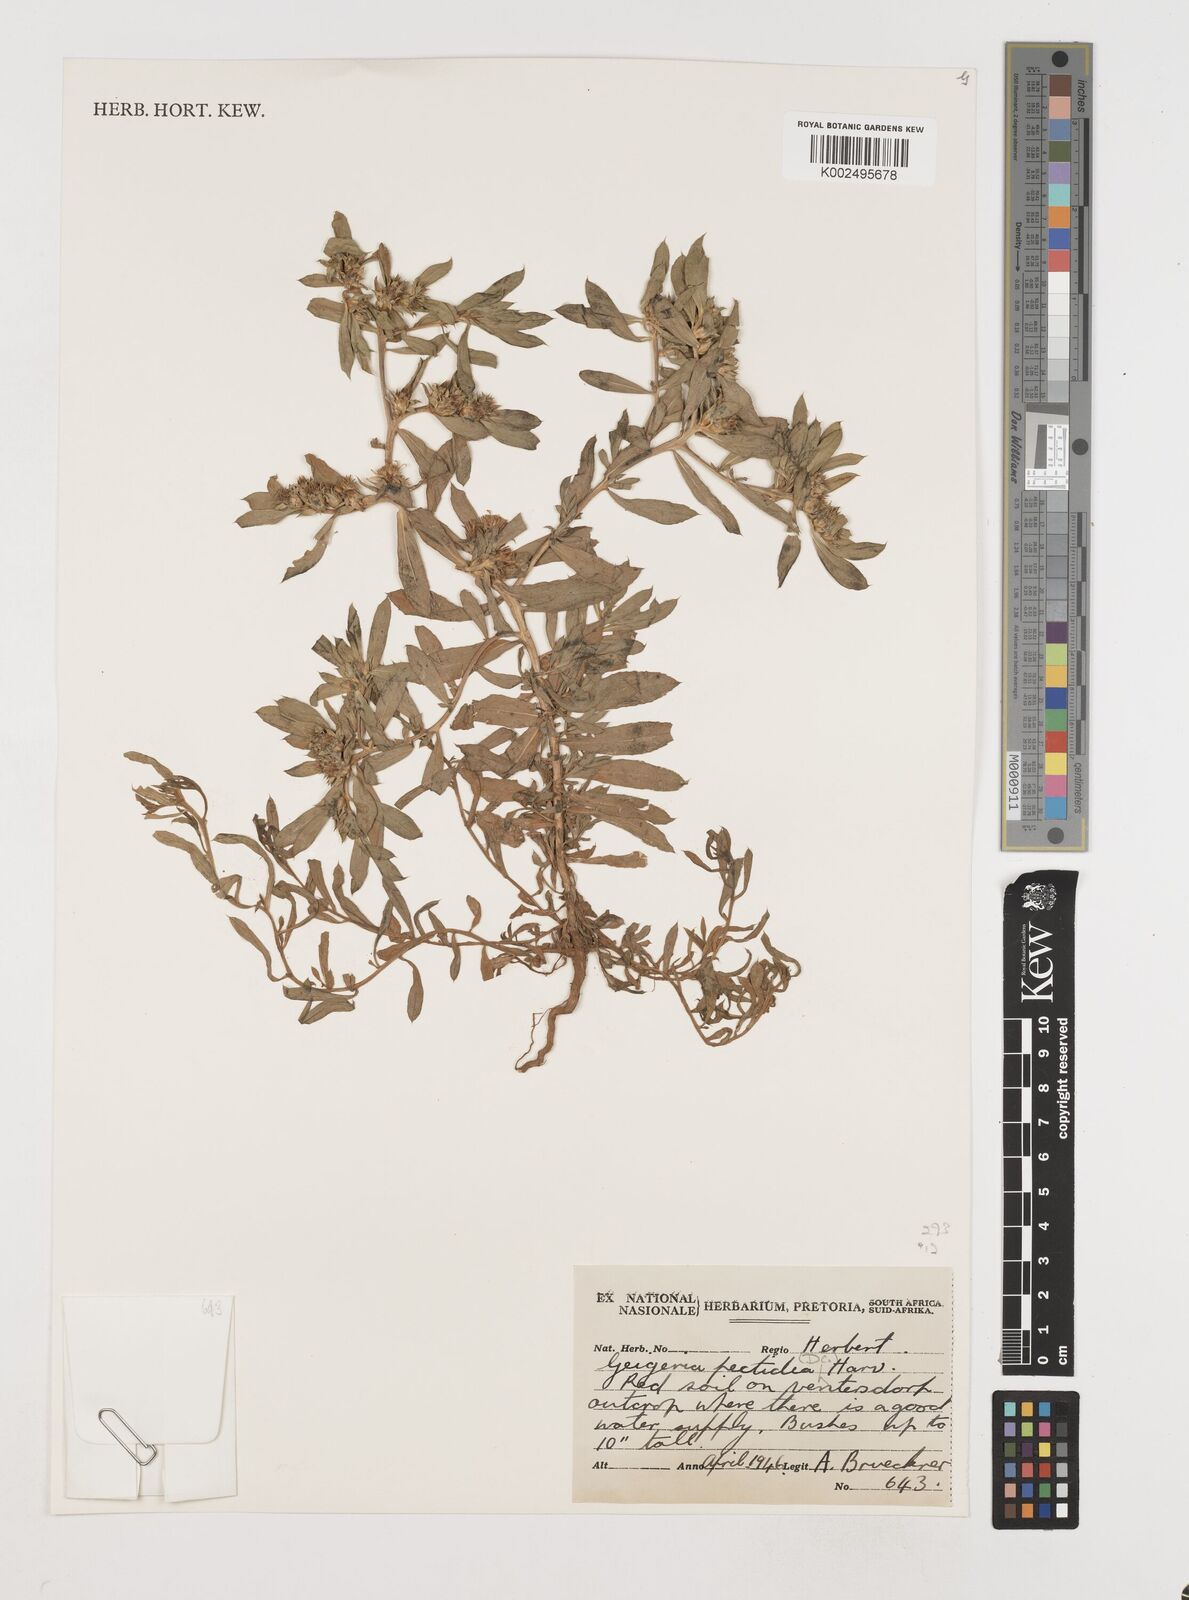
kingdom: Plantae
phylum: Tracheophyta
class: Magnoliopsida
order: Asterales
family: Asteraceae
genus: Geigeria
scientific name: Geigeria pectidea
